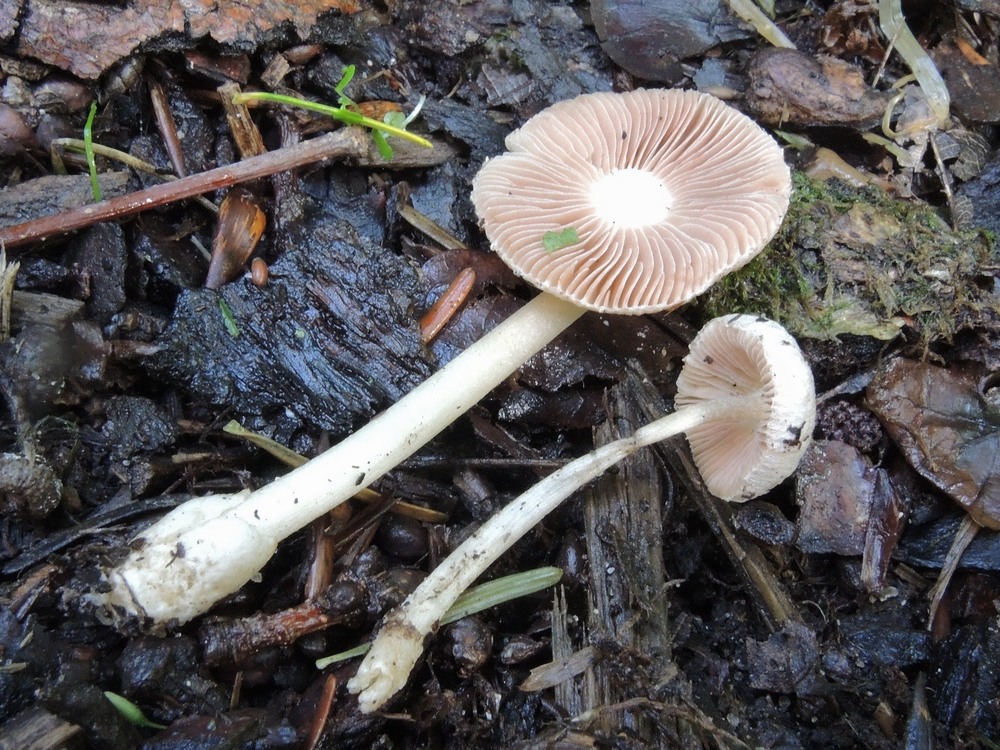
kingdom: Fungi
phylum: Basidiomycota
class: Agaricomycetes
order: Agaricales
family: Pluteaceae
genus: Volvariella
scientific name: Volvariella hypopithys
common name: dunstokket posesvamp
